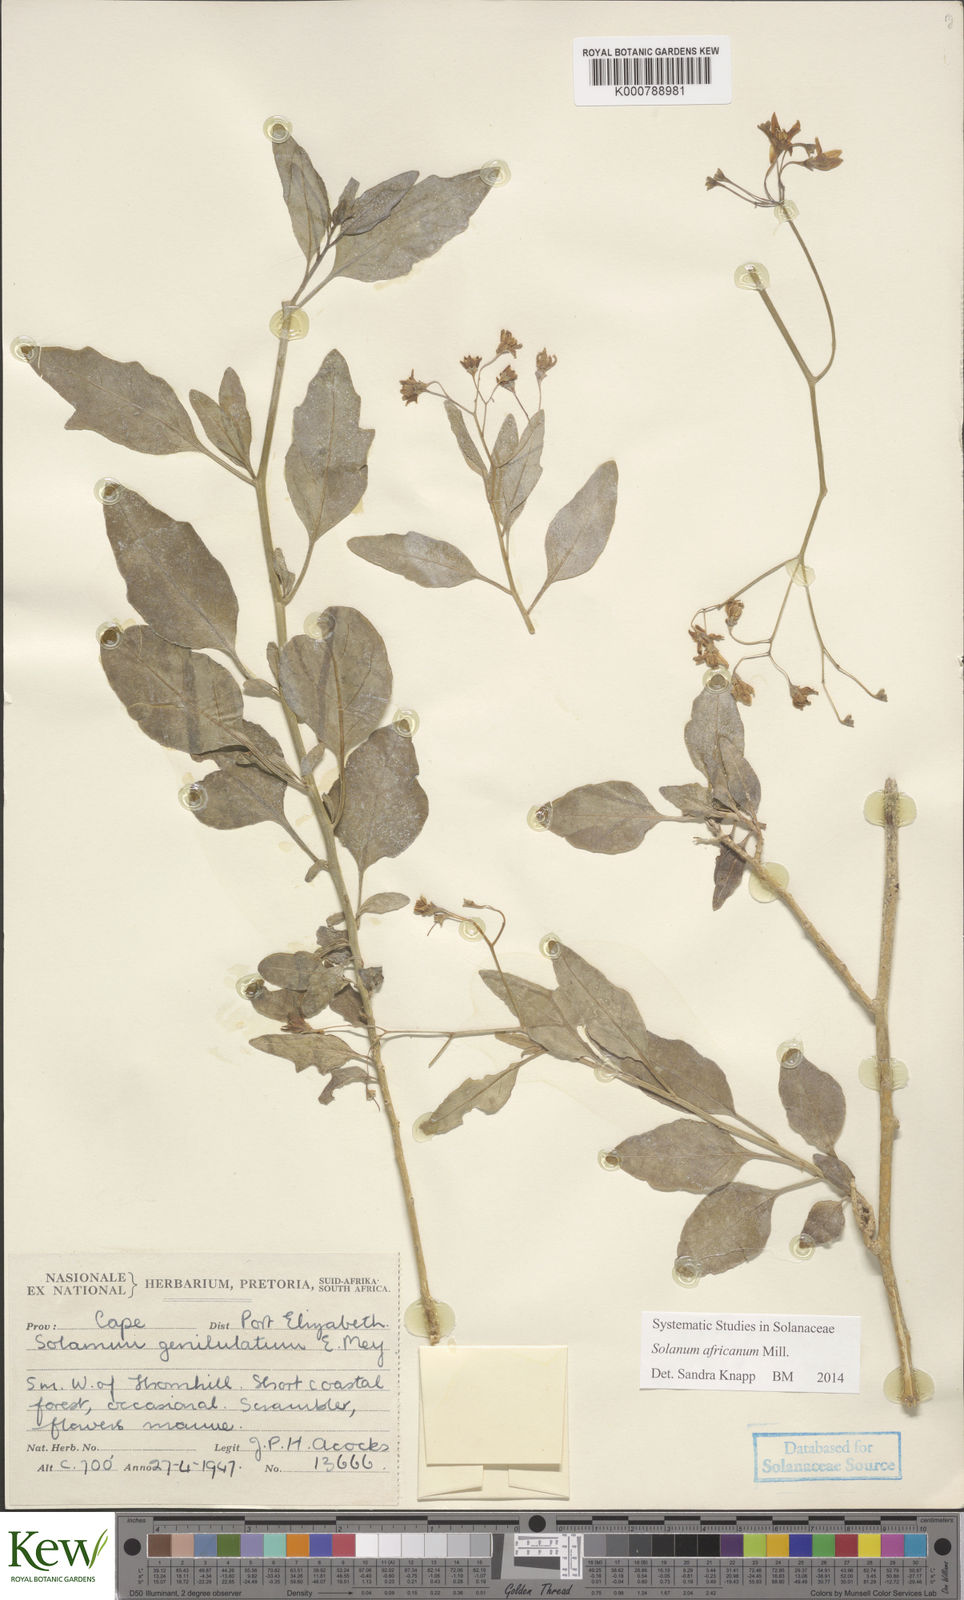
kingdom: Plantae
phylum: Tracheophyta
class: Magnoliopsida
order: Solanales
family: Solanaceae
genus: Solanum
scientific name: Solanum africanum
